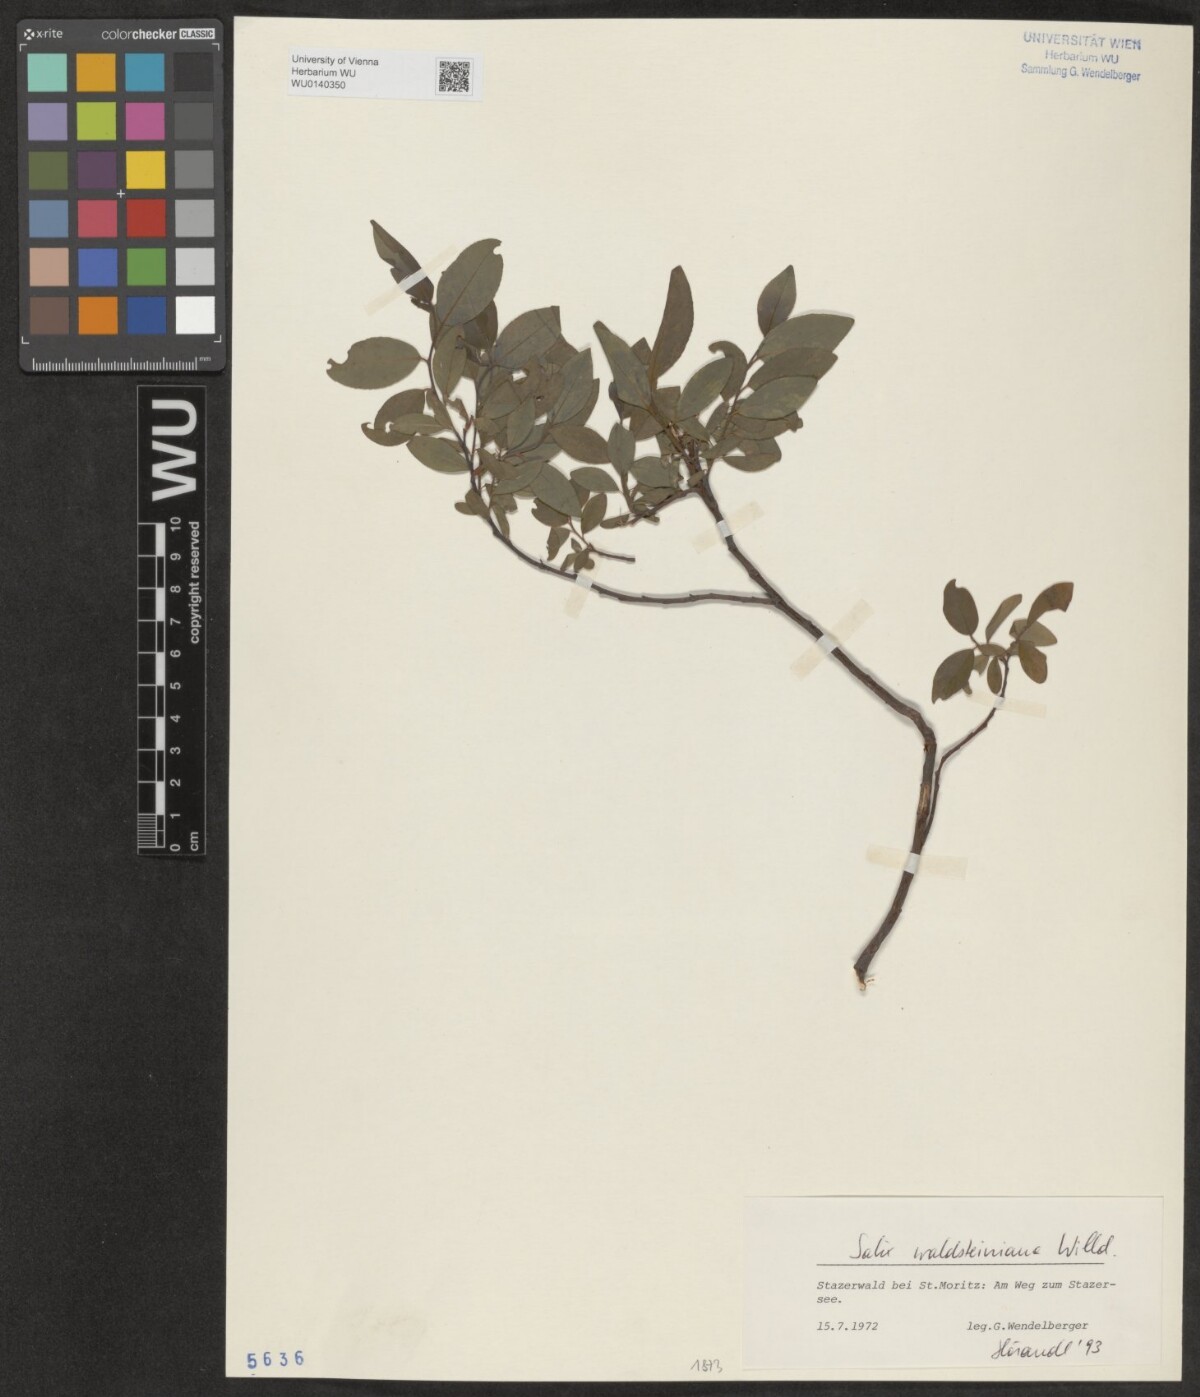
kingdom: Plantae
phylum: Tracheophyta
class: Magnoliopsida
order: Malpighiales
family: Salicaceae
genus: Salix
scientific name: Salix waldsteiniana
